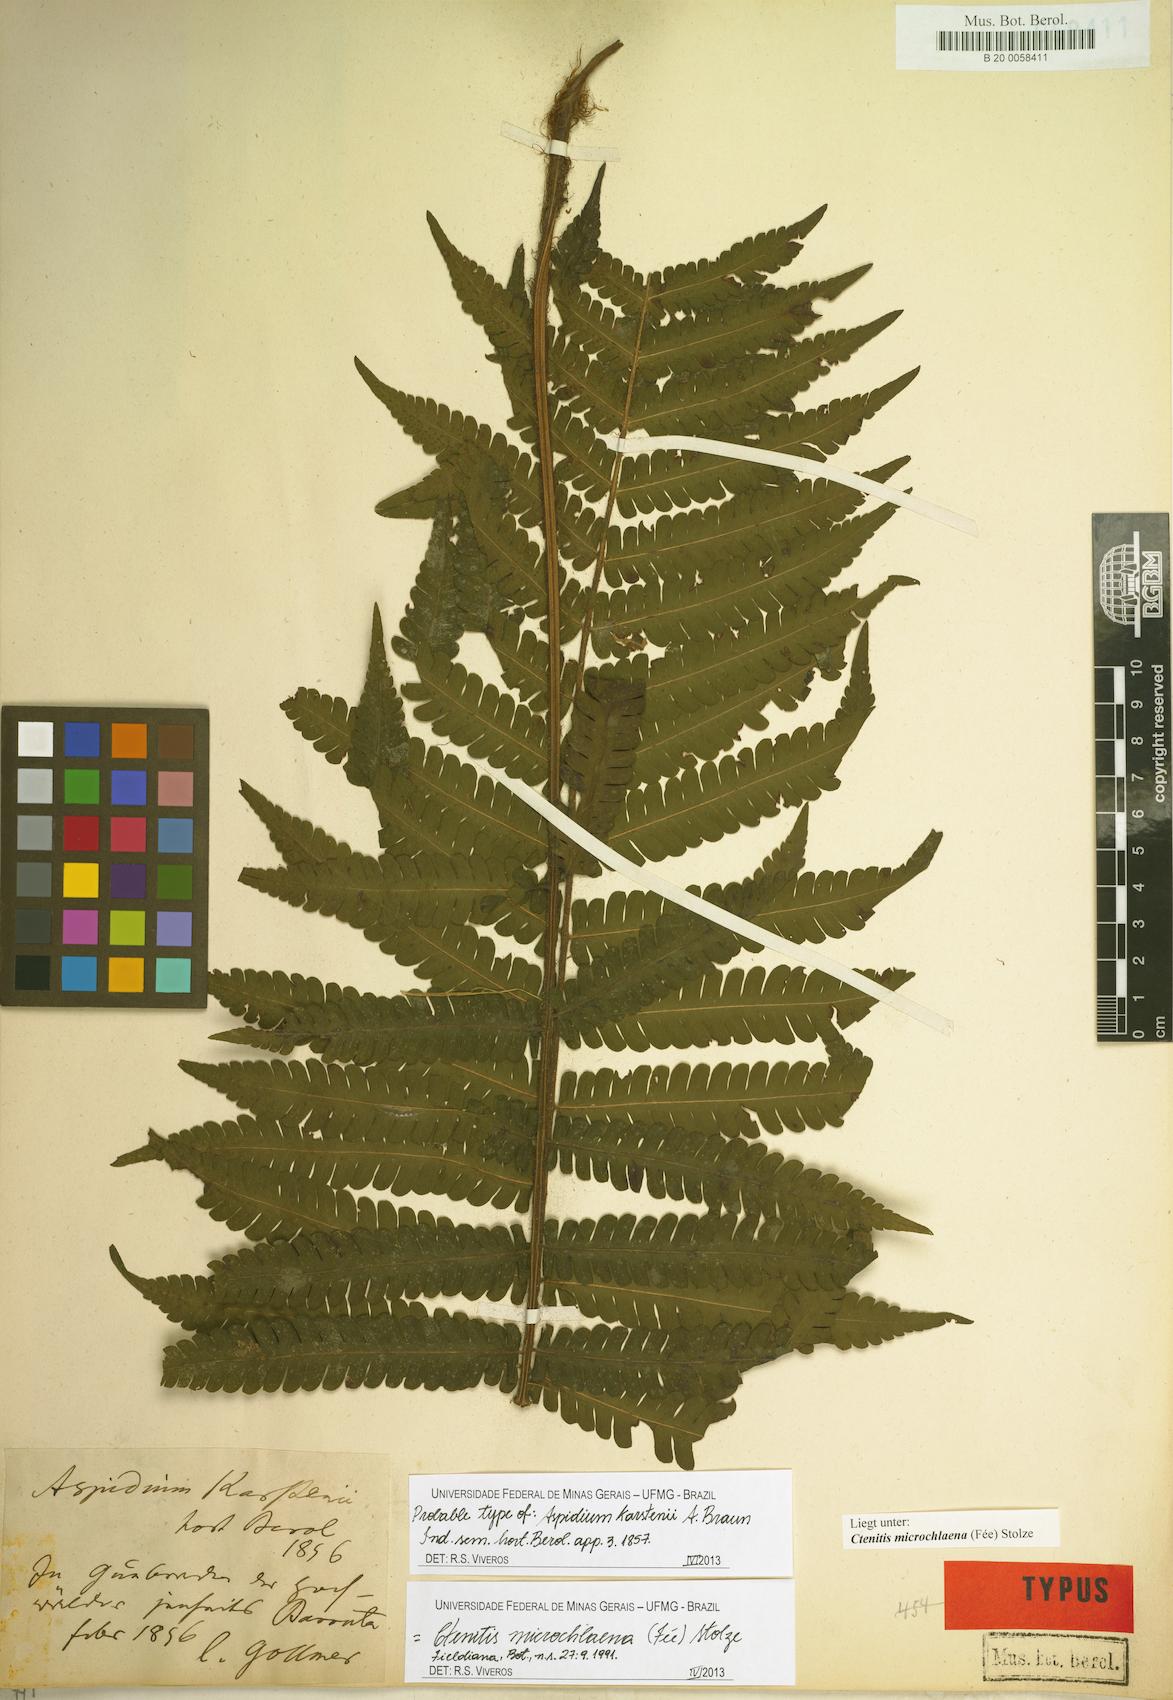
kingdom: Plantae
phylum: Tracheophyta
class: Polypodiopsida
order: Polypodiales
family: Dryopteridaceae
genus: Ctenitis
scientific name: Ctenitis microchlaena
